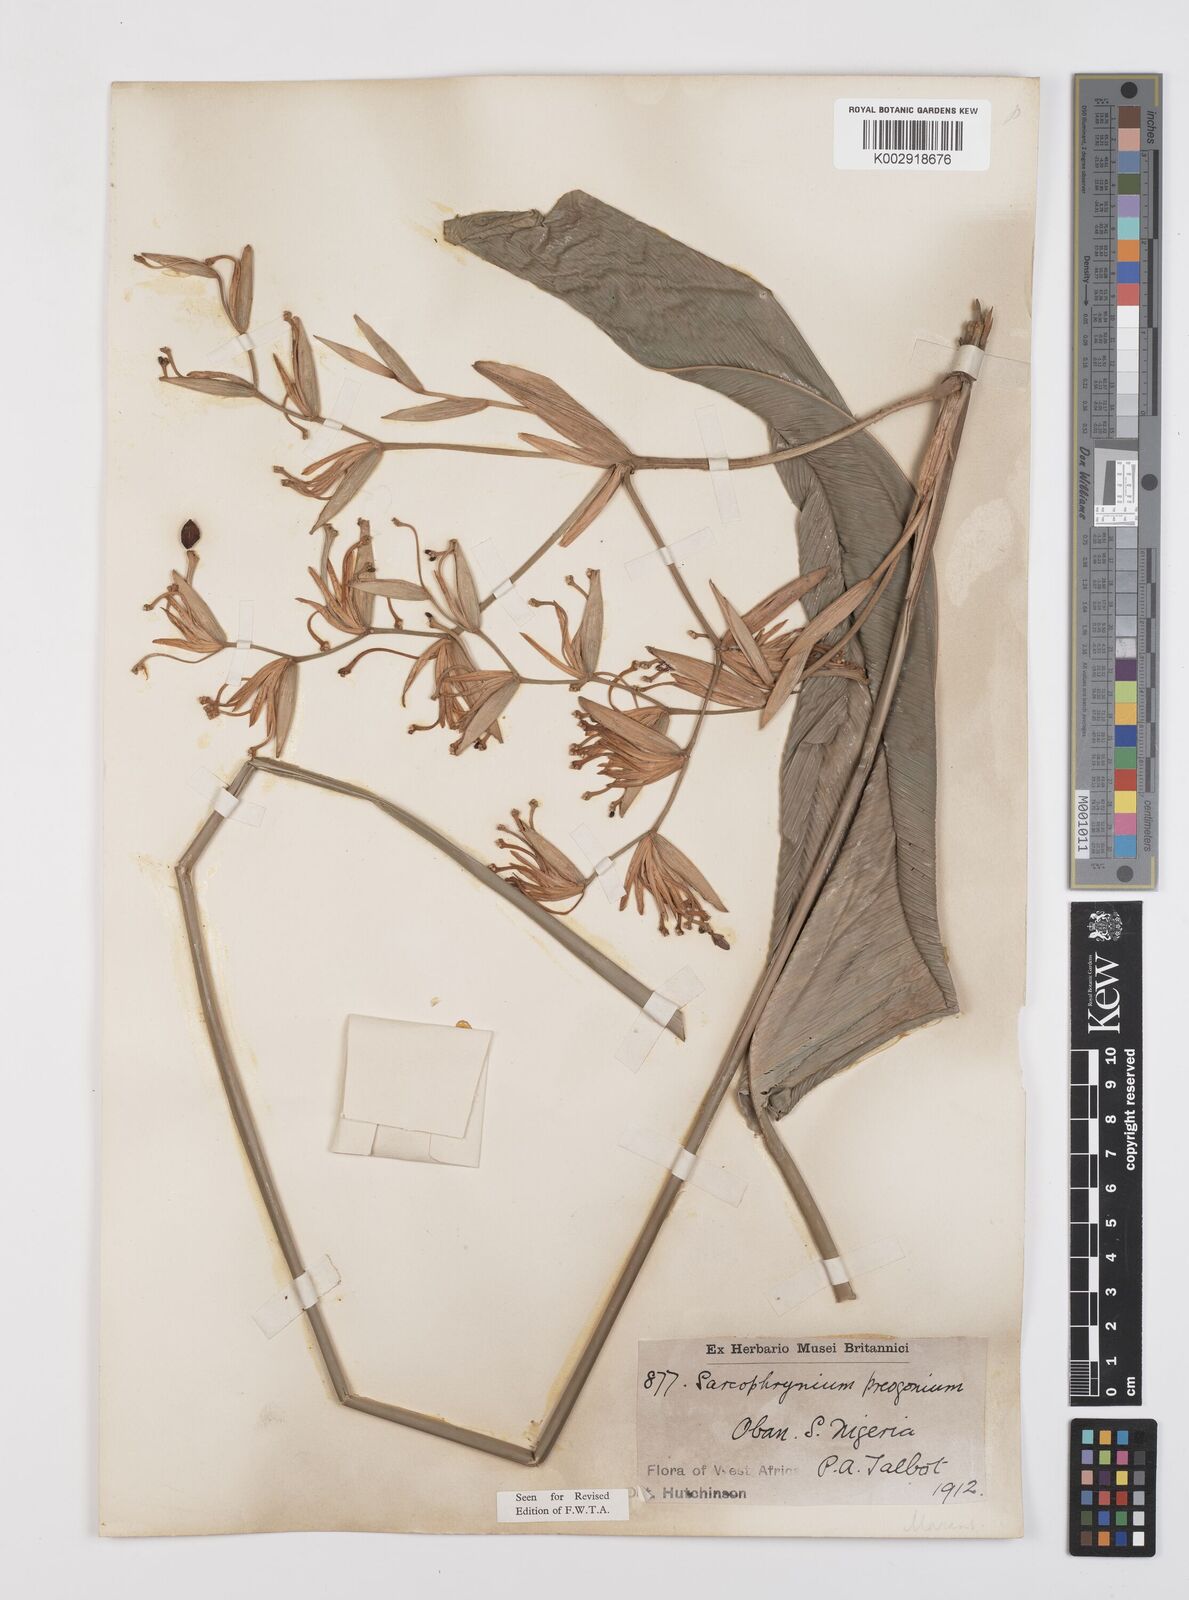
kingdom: Plantae
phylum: Tracheophyta
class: Liliopsida
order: Zingiberales
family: Marantaceae
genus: Sarcophrynium
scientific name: Sarcophrynium prionogonium
